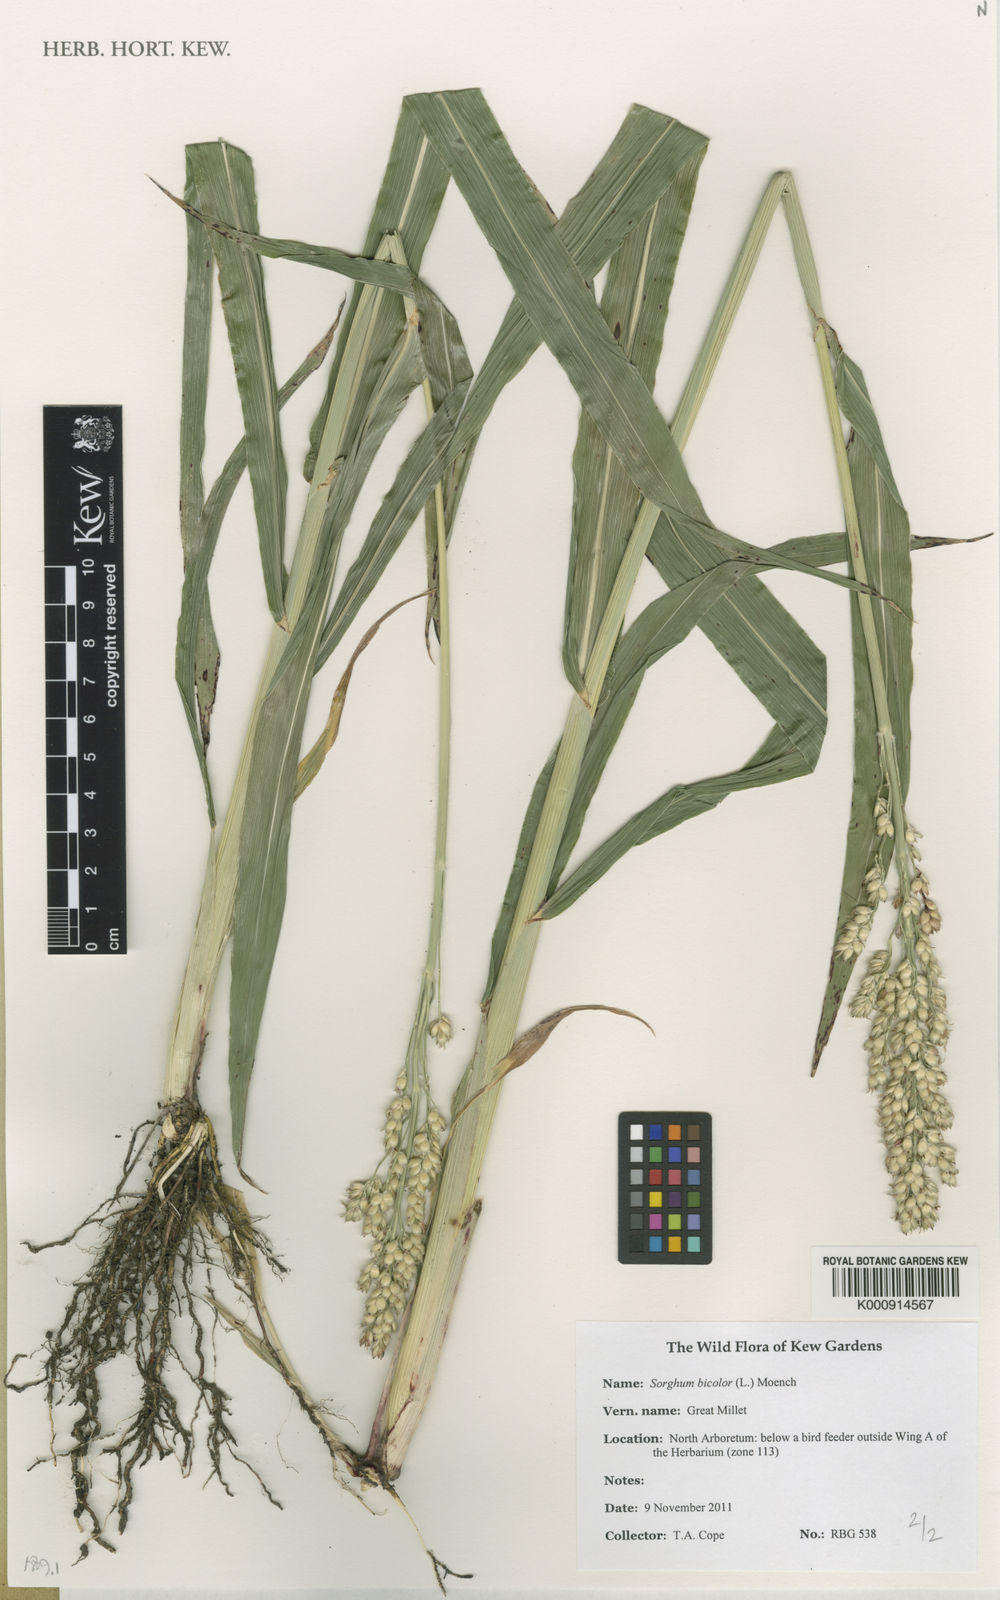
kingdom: Plantae
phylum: Tracheophyta
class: Liliopsida
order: Poales
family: Poaceae
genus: Sorghum
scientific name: Sorghum bicolor
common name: Sorghum
